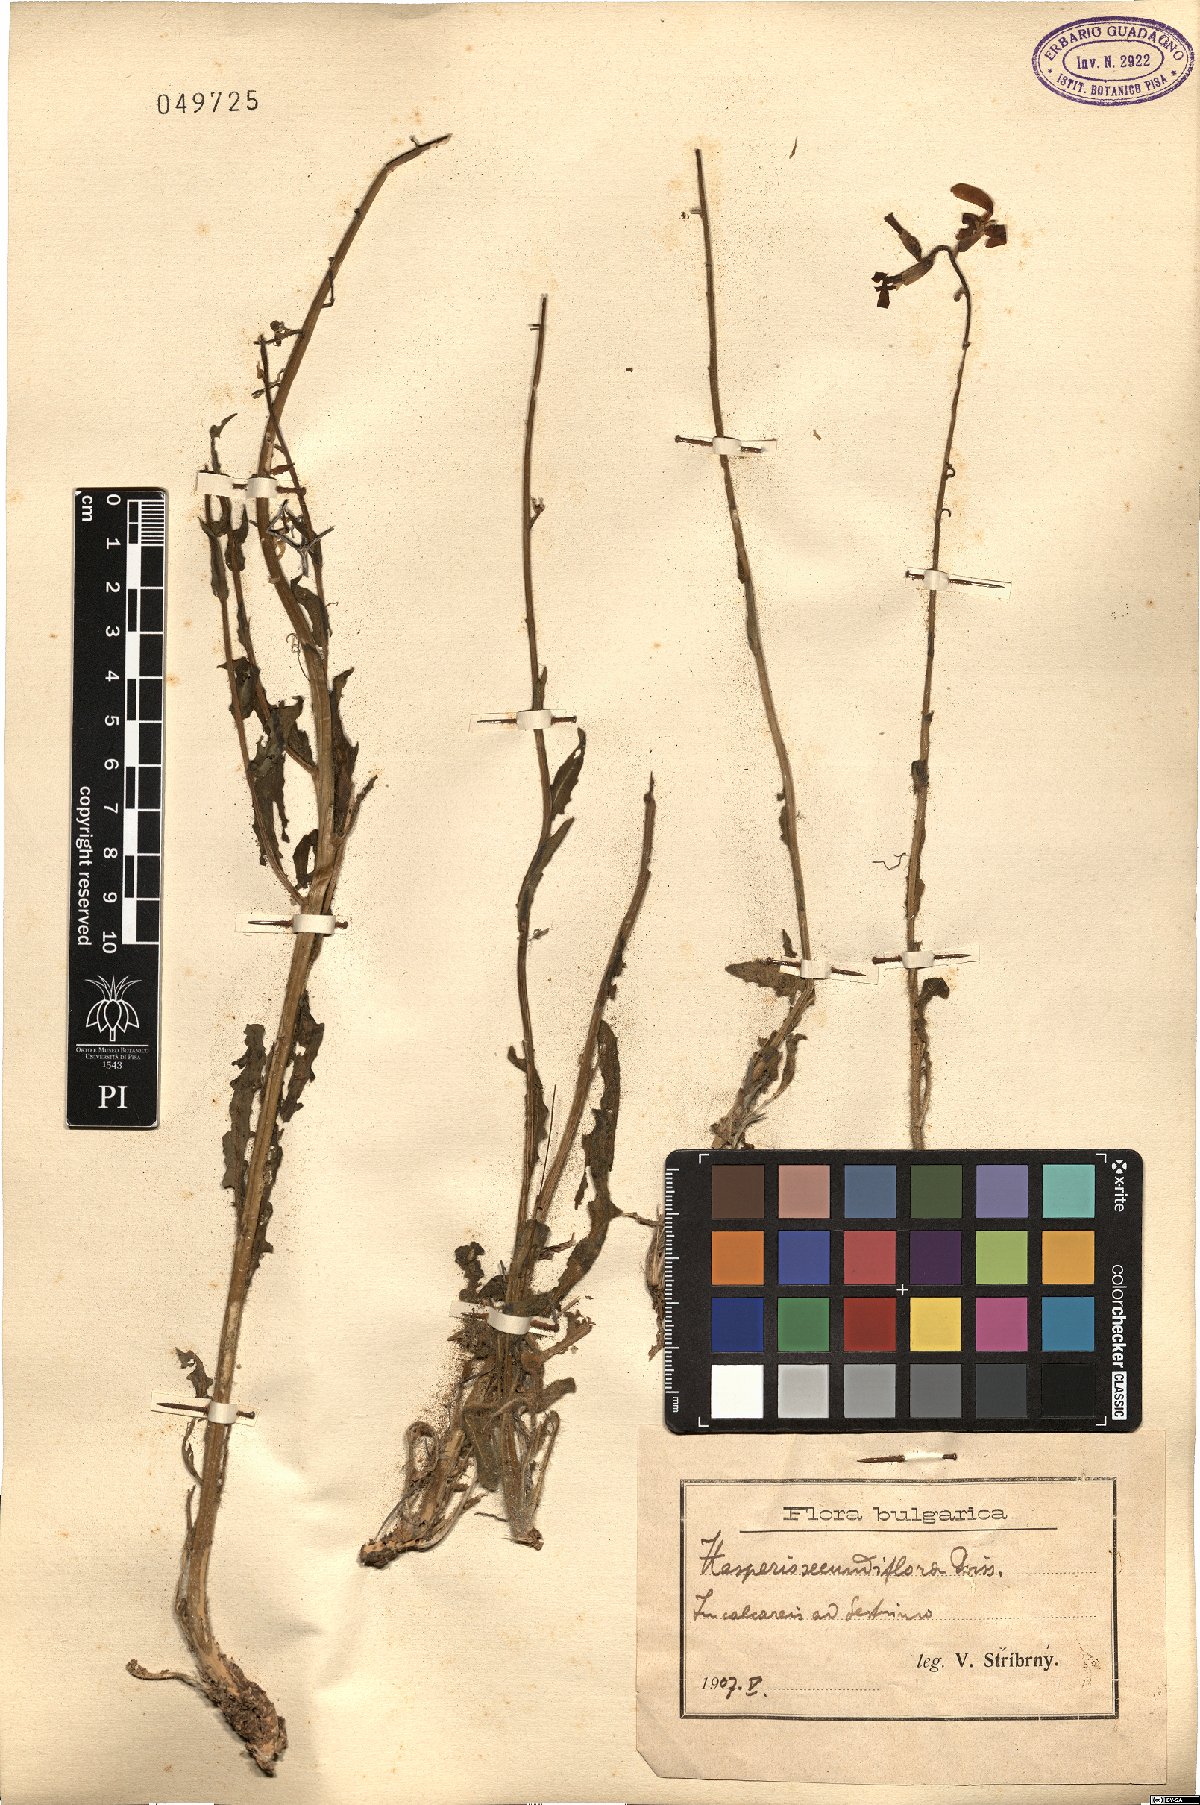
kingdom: Plantae
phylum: Tracheophyta
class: Magnoliopsida
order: Brassicales
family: Brassicaceae
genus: Hesperis
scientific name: Hesperis laciniata
